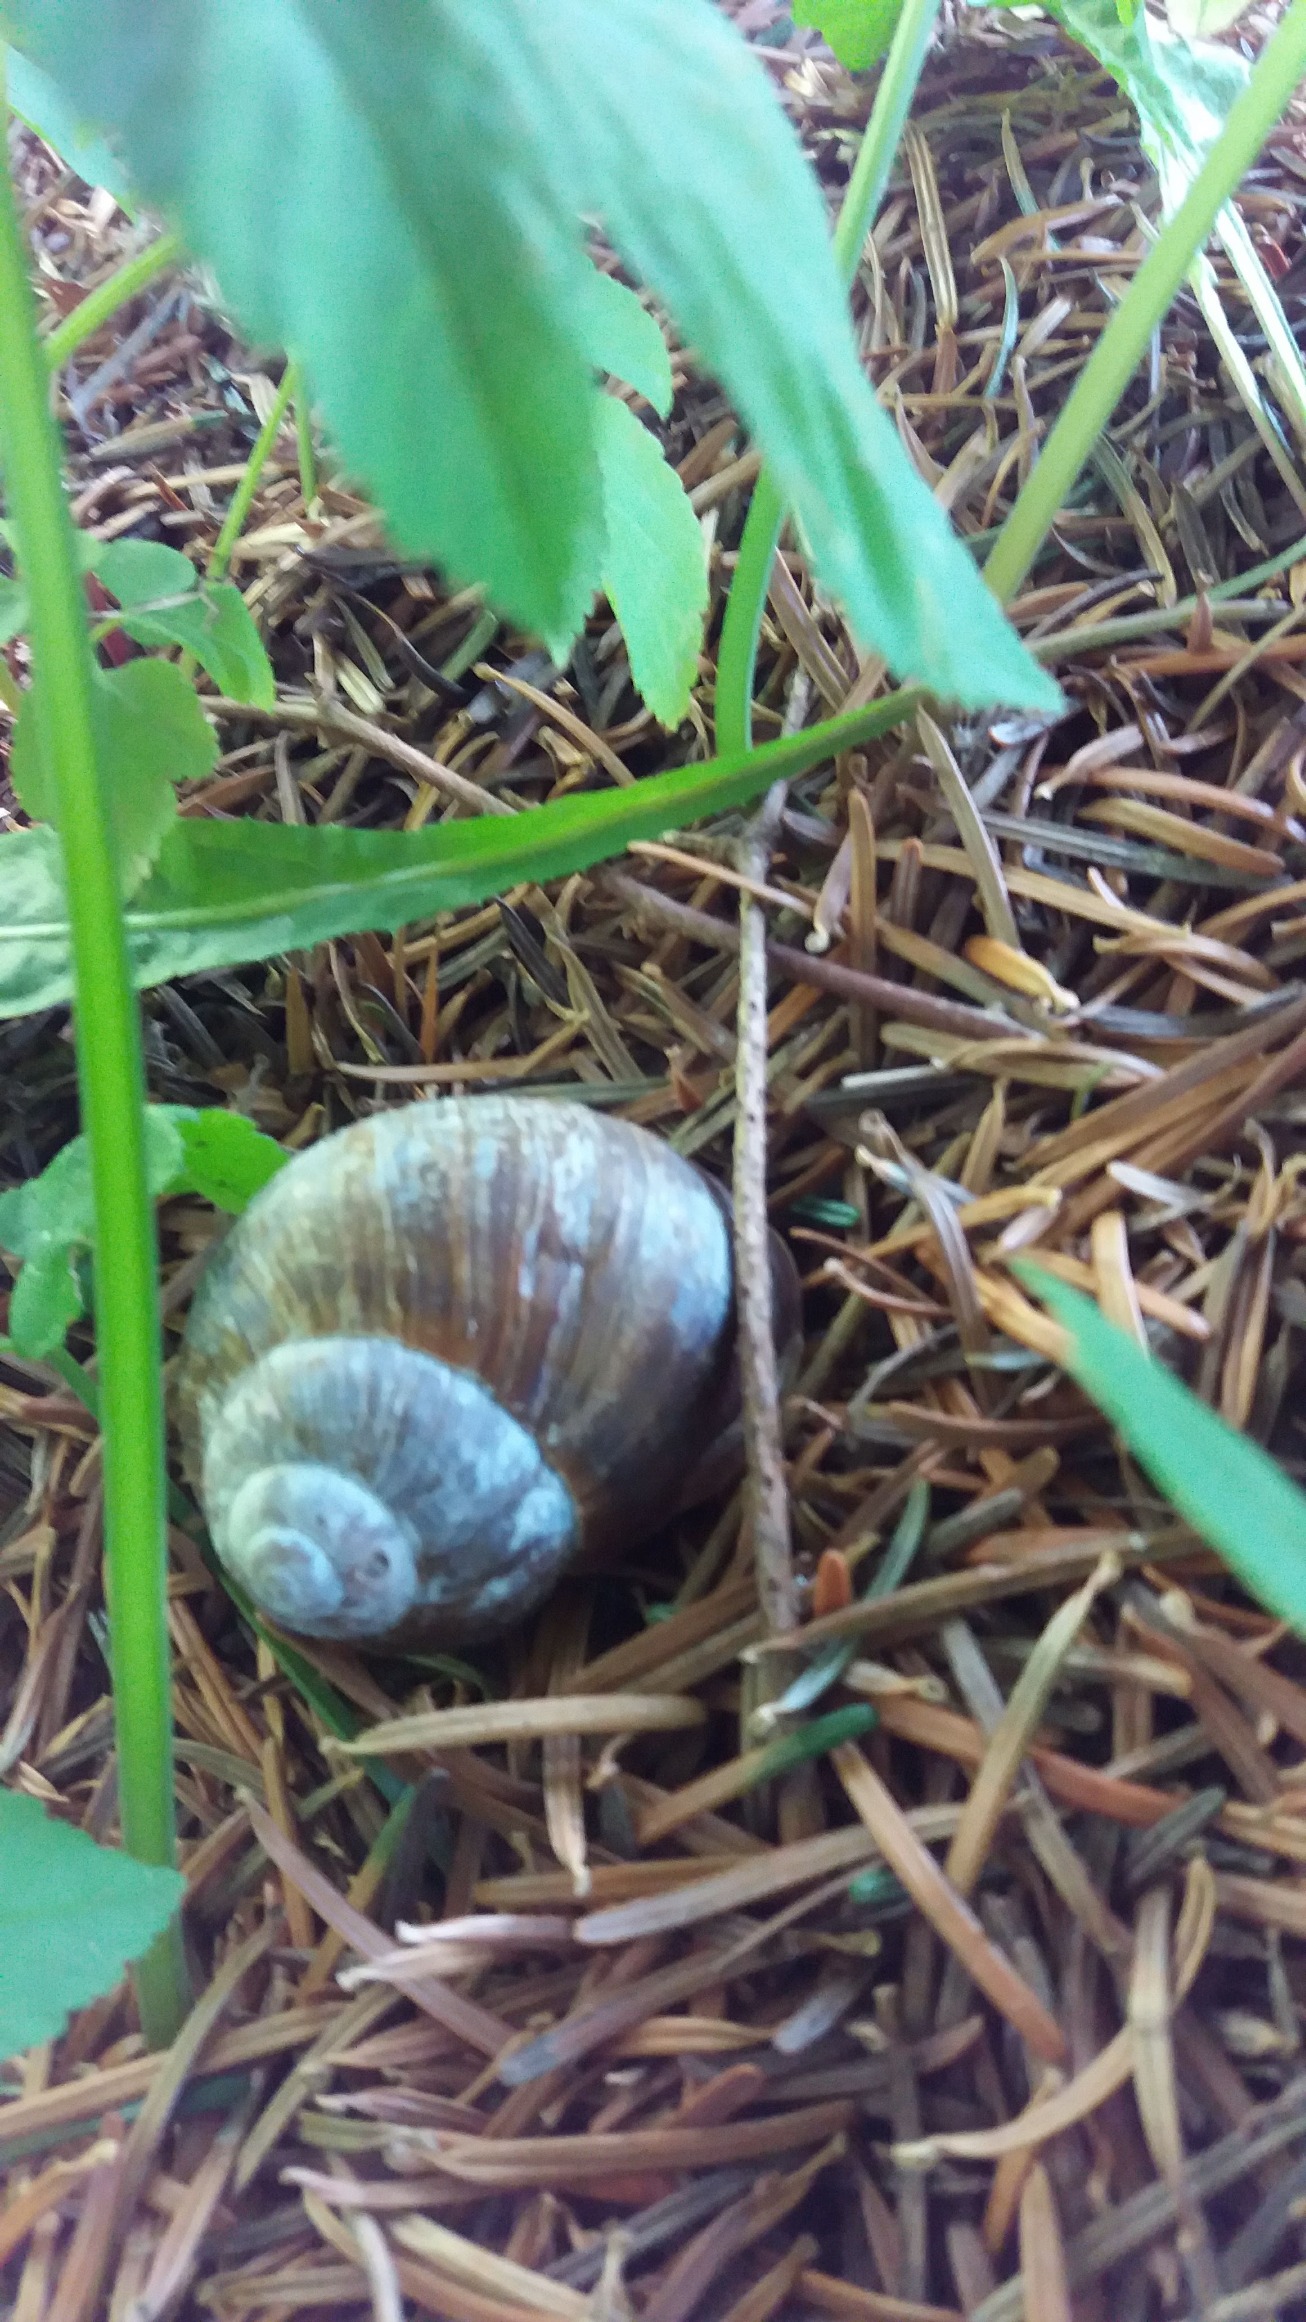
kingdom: Animalia
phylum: Mollusca
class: Gastropoda
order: Stylommatophora
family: Helicidae
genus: Helix
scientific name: Helix pomatia
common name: Vinbjergsnegl
